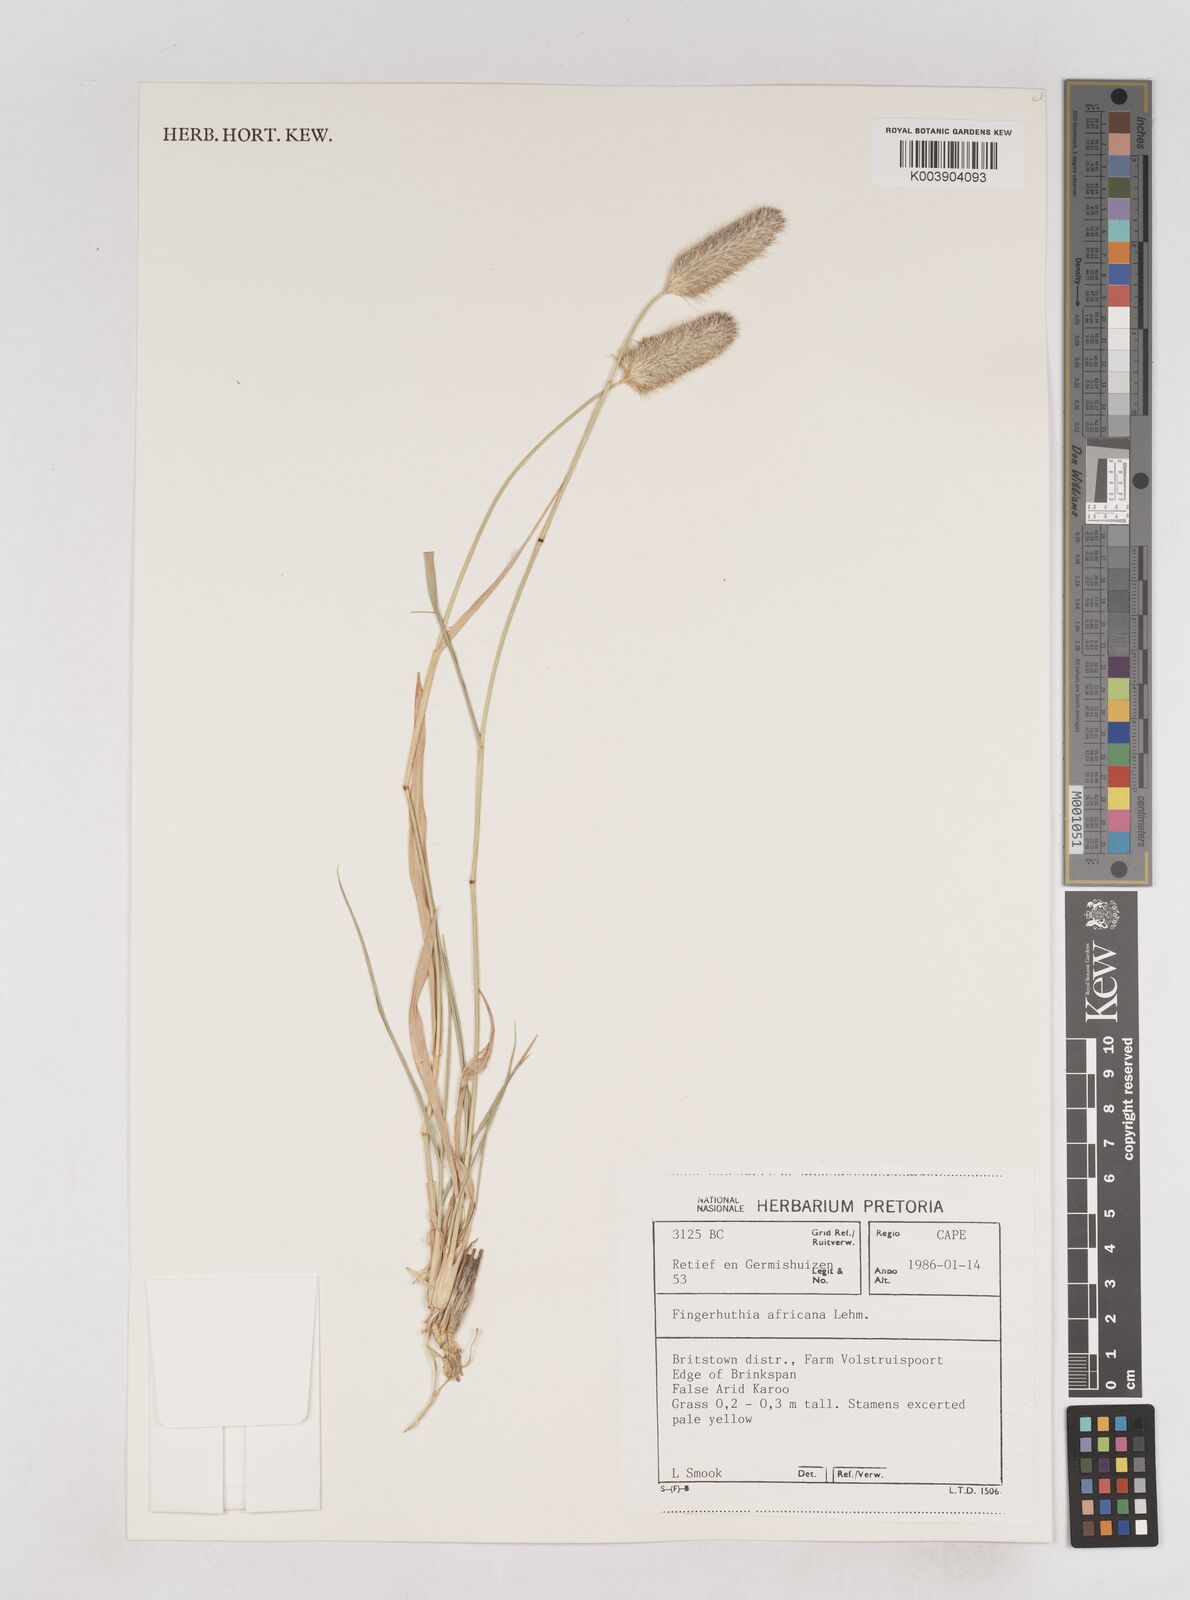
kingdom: Plantae
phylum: Tracheophyta
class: Liliopsida
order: Poales
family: Poaceae
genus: Fingerhuthia
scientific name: Fingerhuthia africana
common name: Zulu fescue
